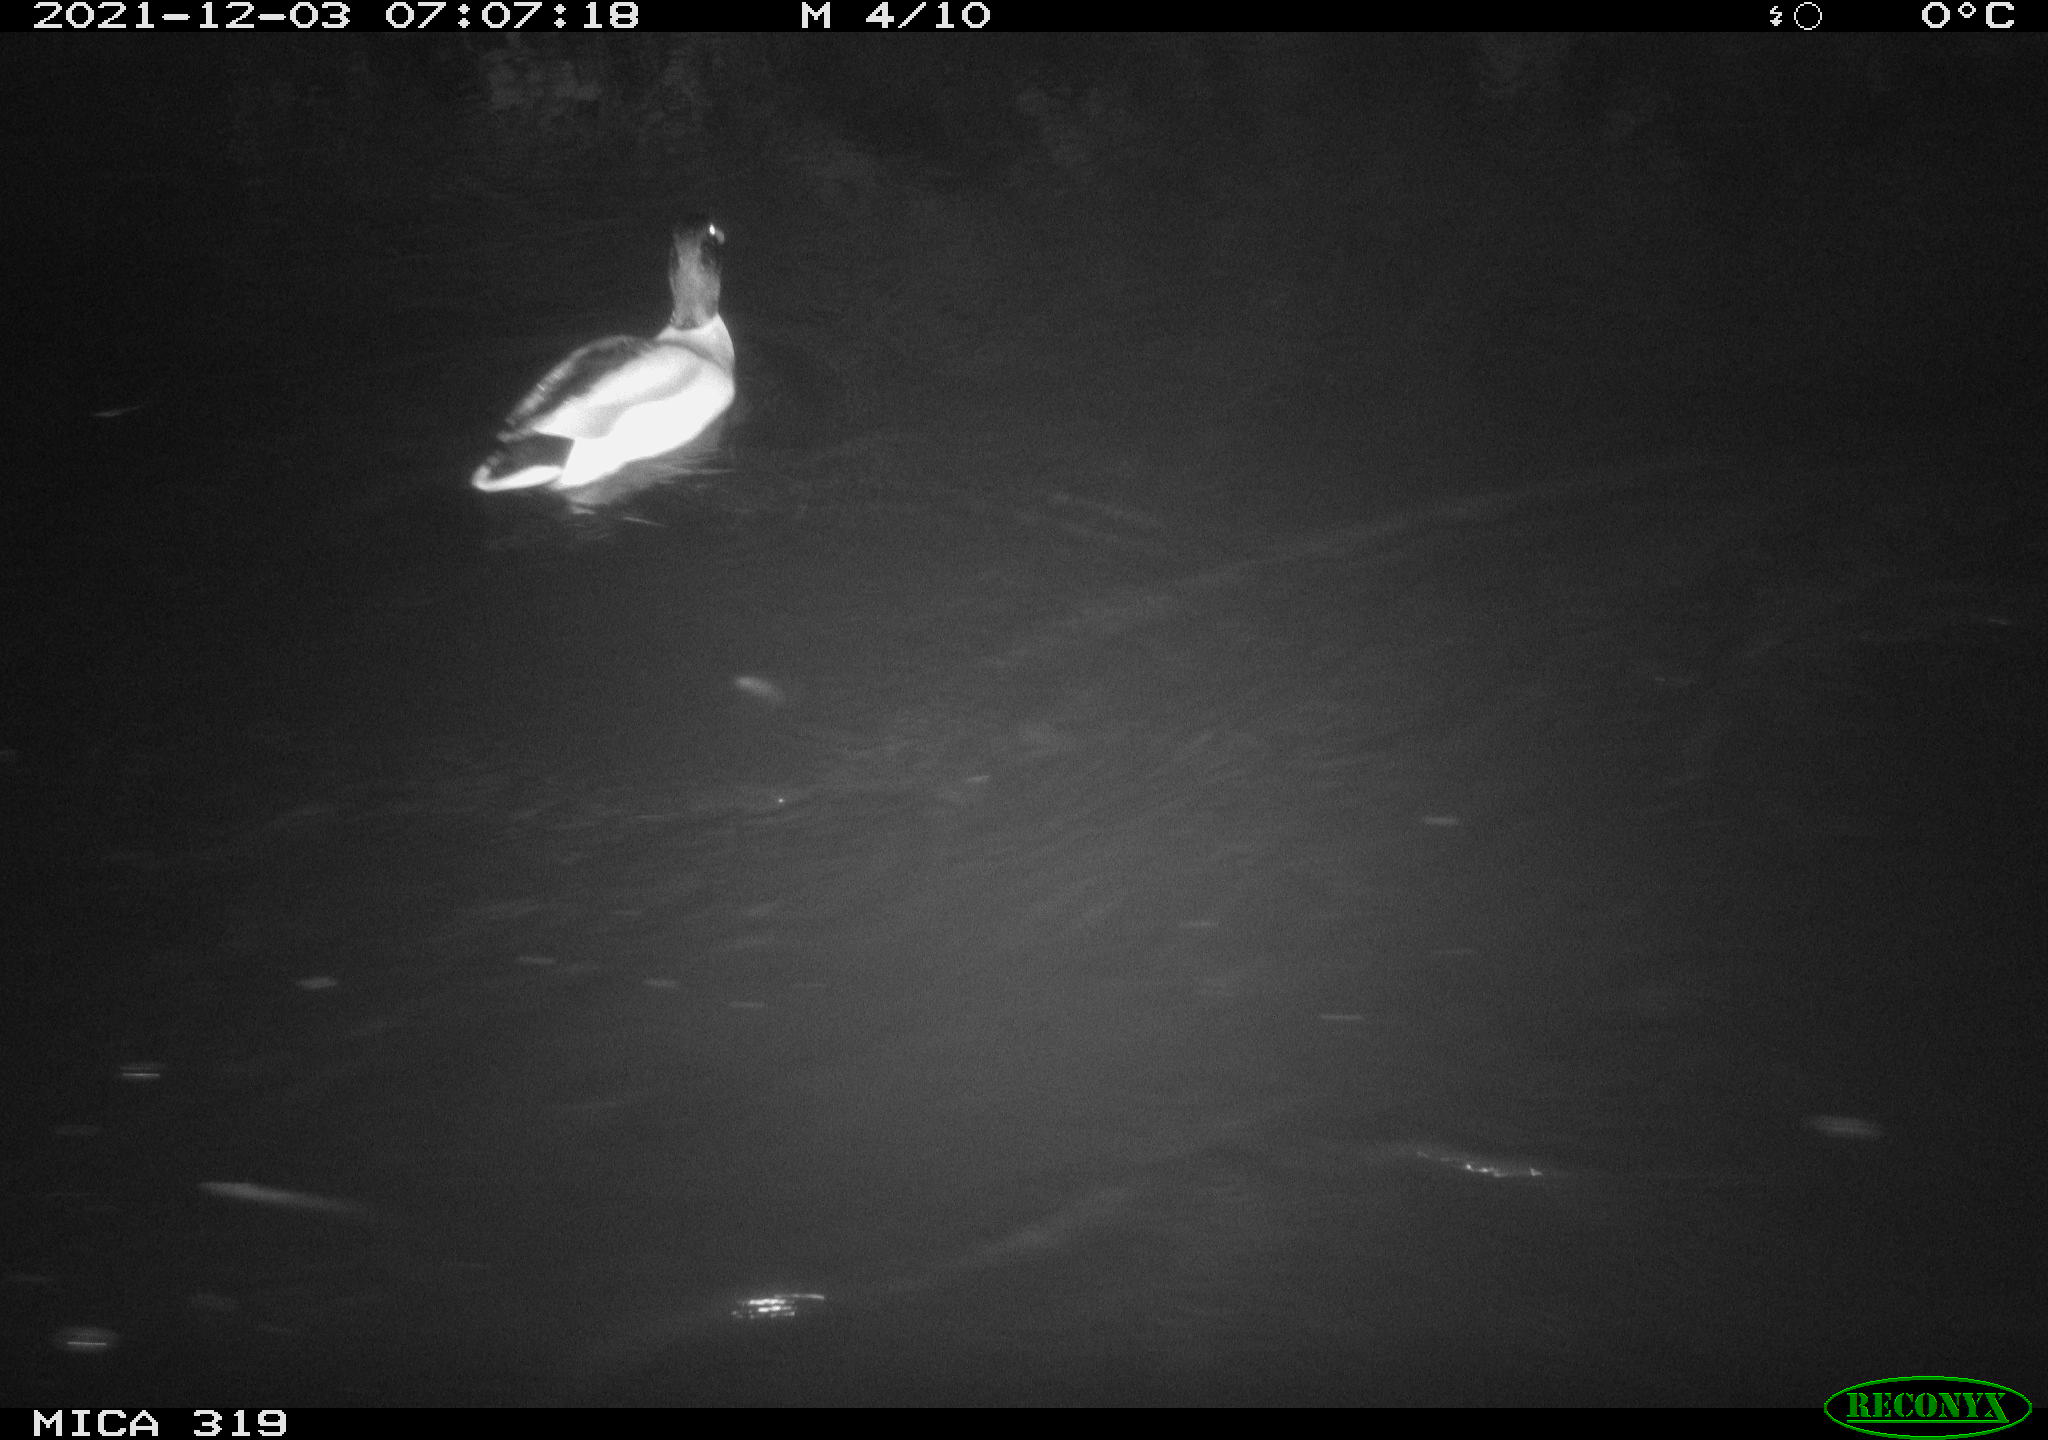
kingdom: Animalia
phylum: Chordata
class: Aves
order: Anseriformes
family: Anatidae
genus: Anas
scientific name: Anas platyrhynchos
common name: Mallard
